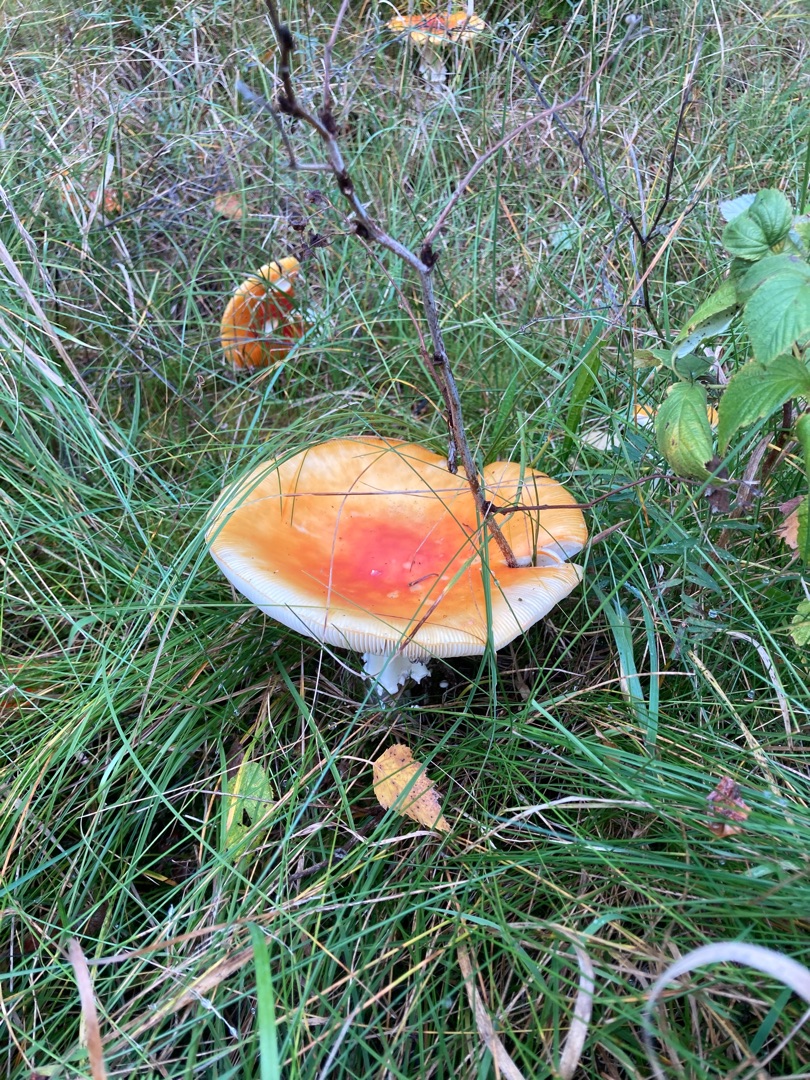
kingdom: Fungi
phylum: Basidiomycota
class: Agaricomycetes
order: Agaricales
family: Amanitaceae
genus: Amanita
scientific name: Amanita muscaria
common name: Rød fluesvamp
